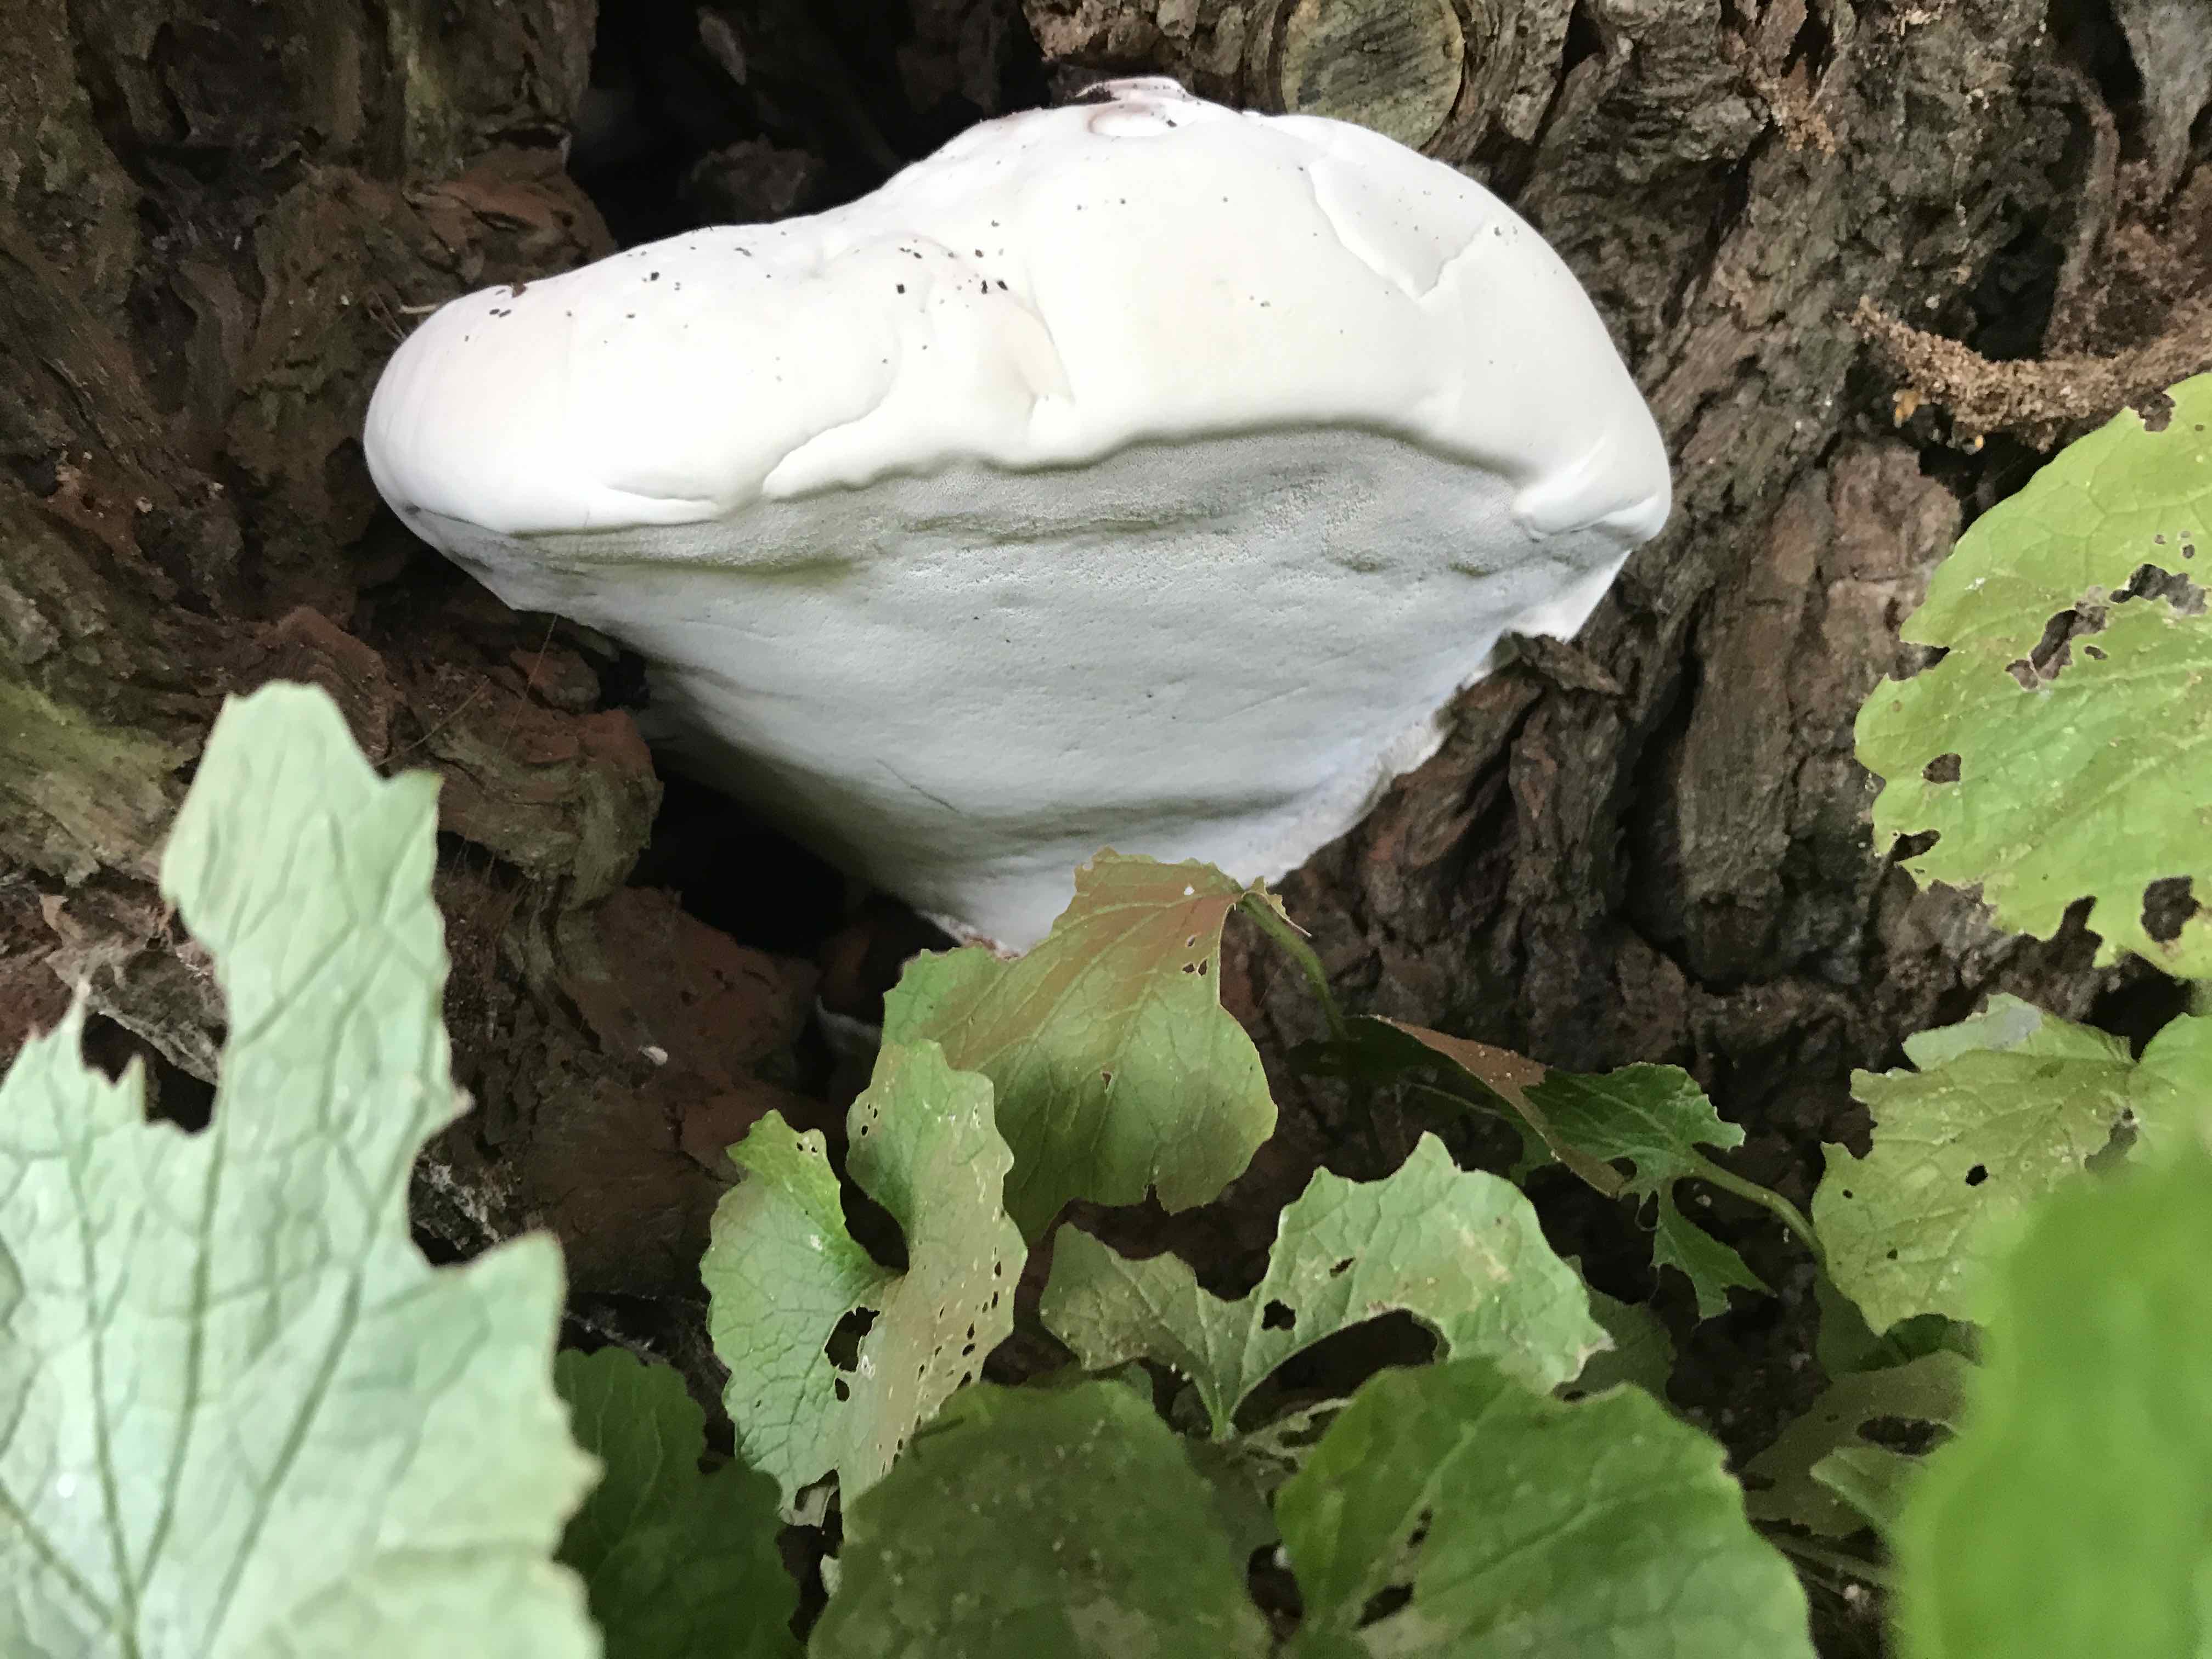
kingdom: Fungi
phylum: Basidiomycota
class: Agaricomycetes
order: Polyporales
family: Polyporaceae
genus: Ganoderma
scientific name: Ganoderma applanatum
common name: flad lakporesvamp
